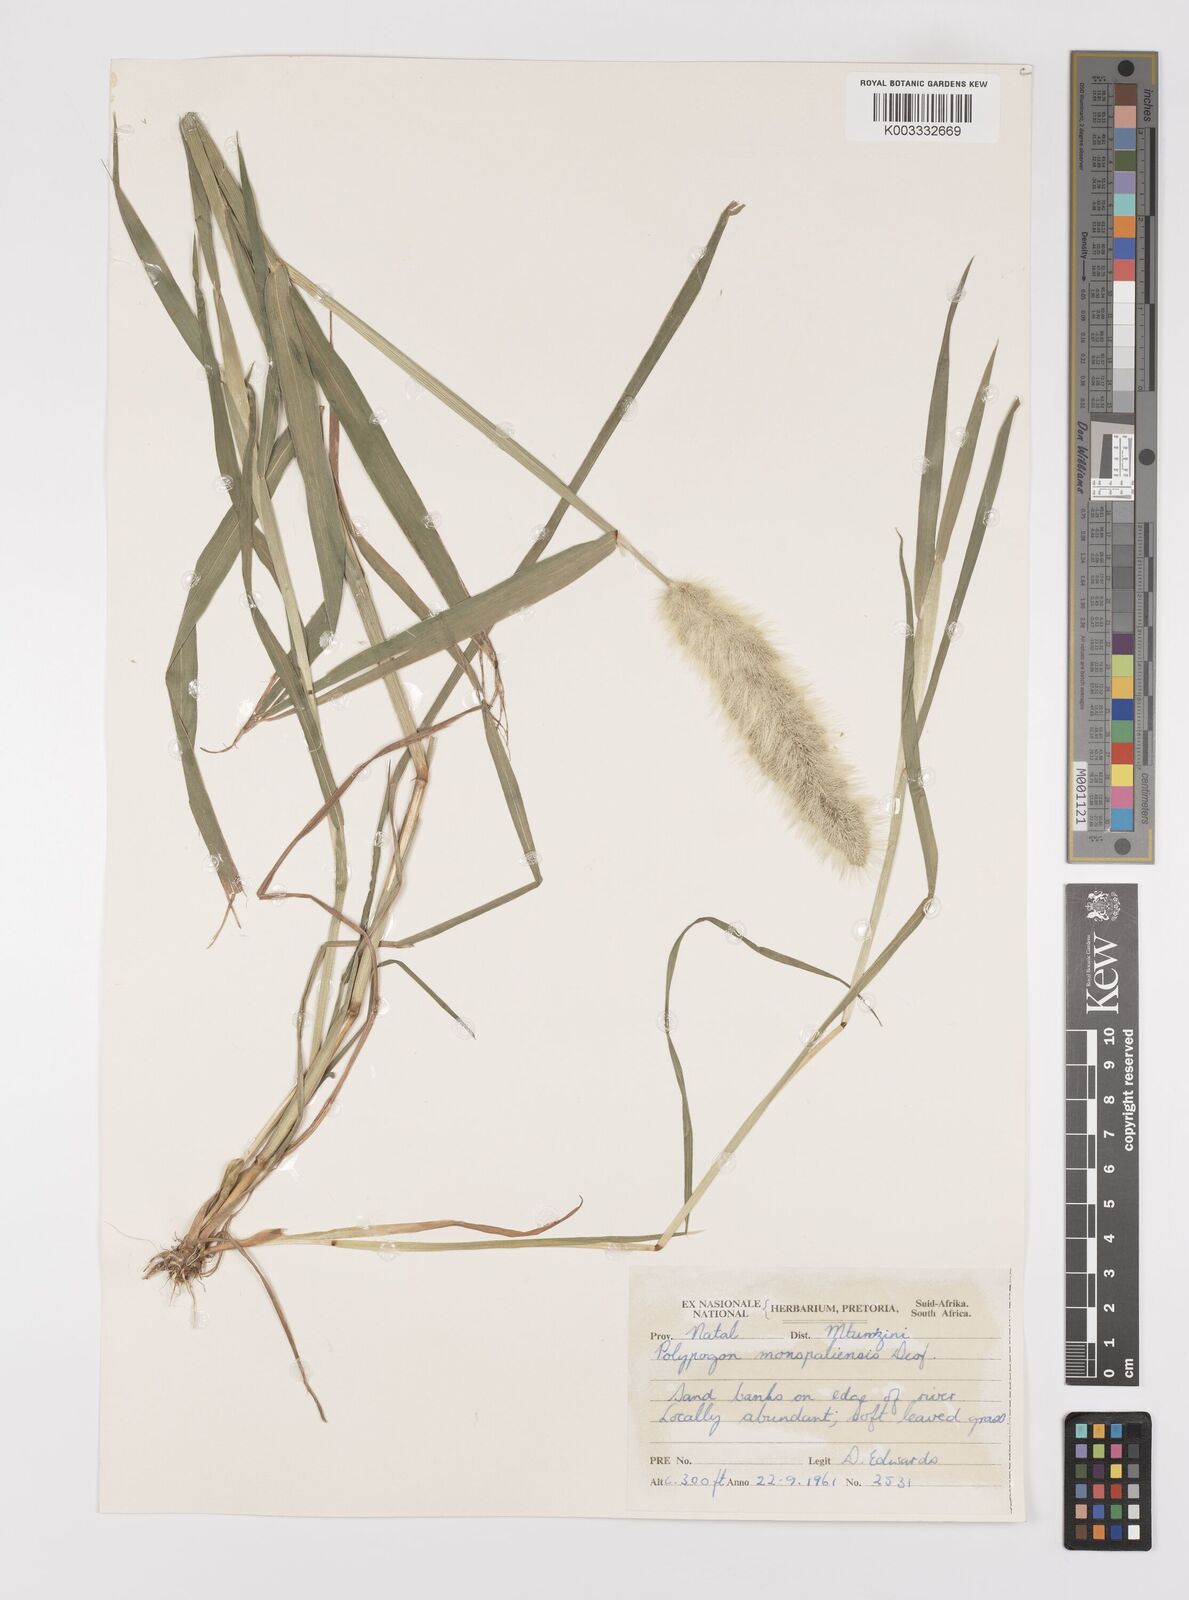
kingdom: Plantae
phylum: Tracheophyta
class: Liliopsida
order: Poales
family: Poaceae
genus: Polypogon
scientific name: Polypogon monspeliensis
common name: Annual rabbitsfoot grass
